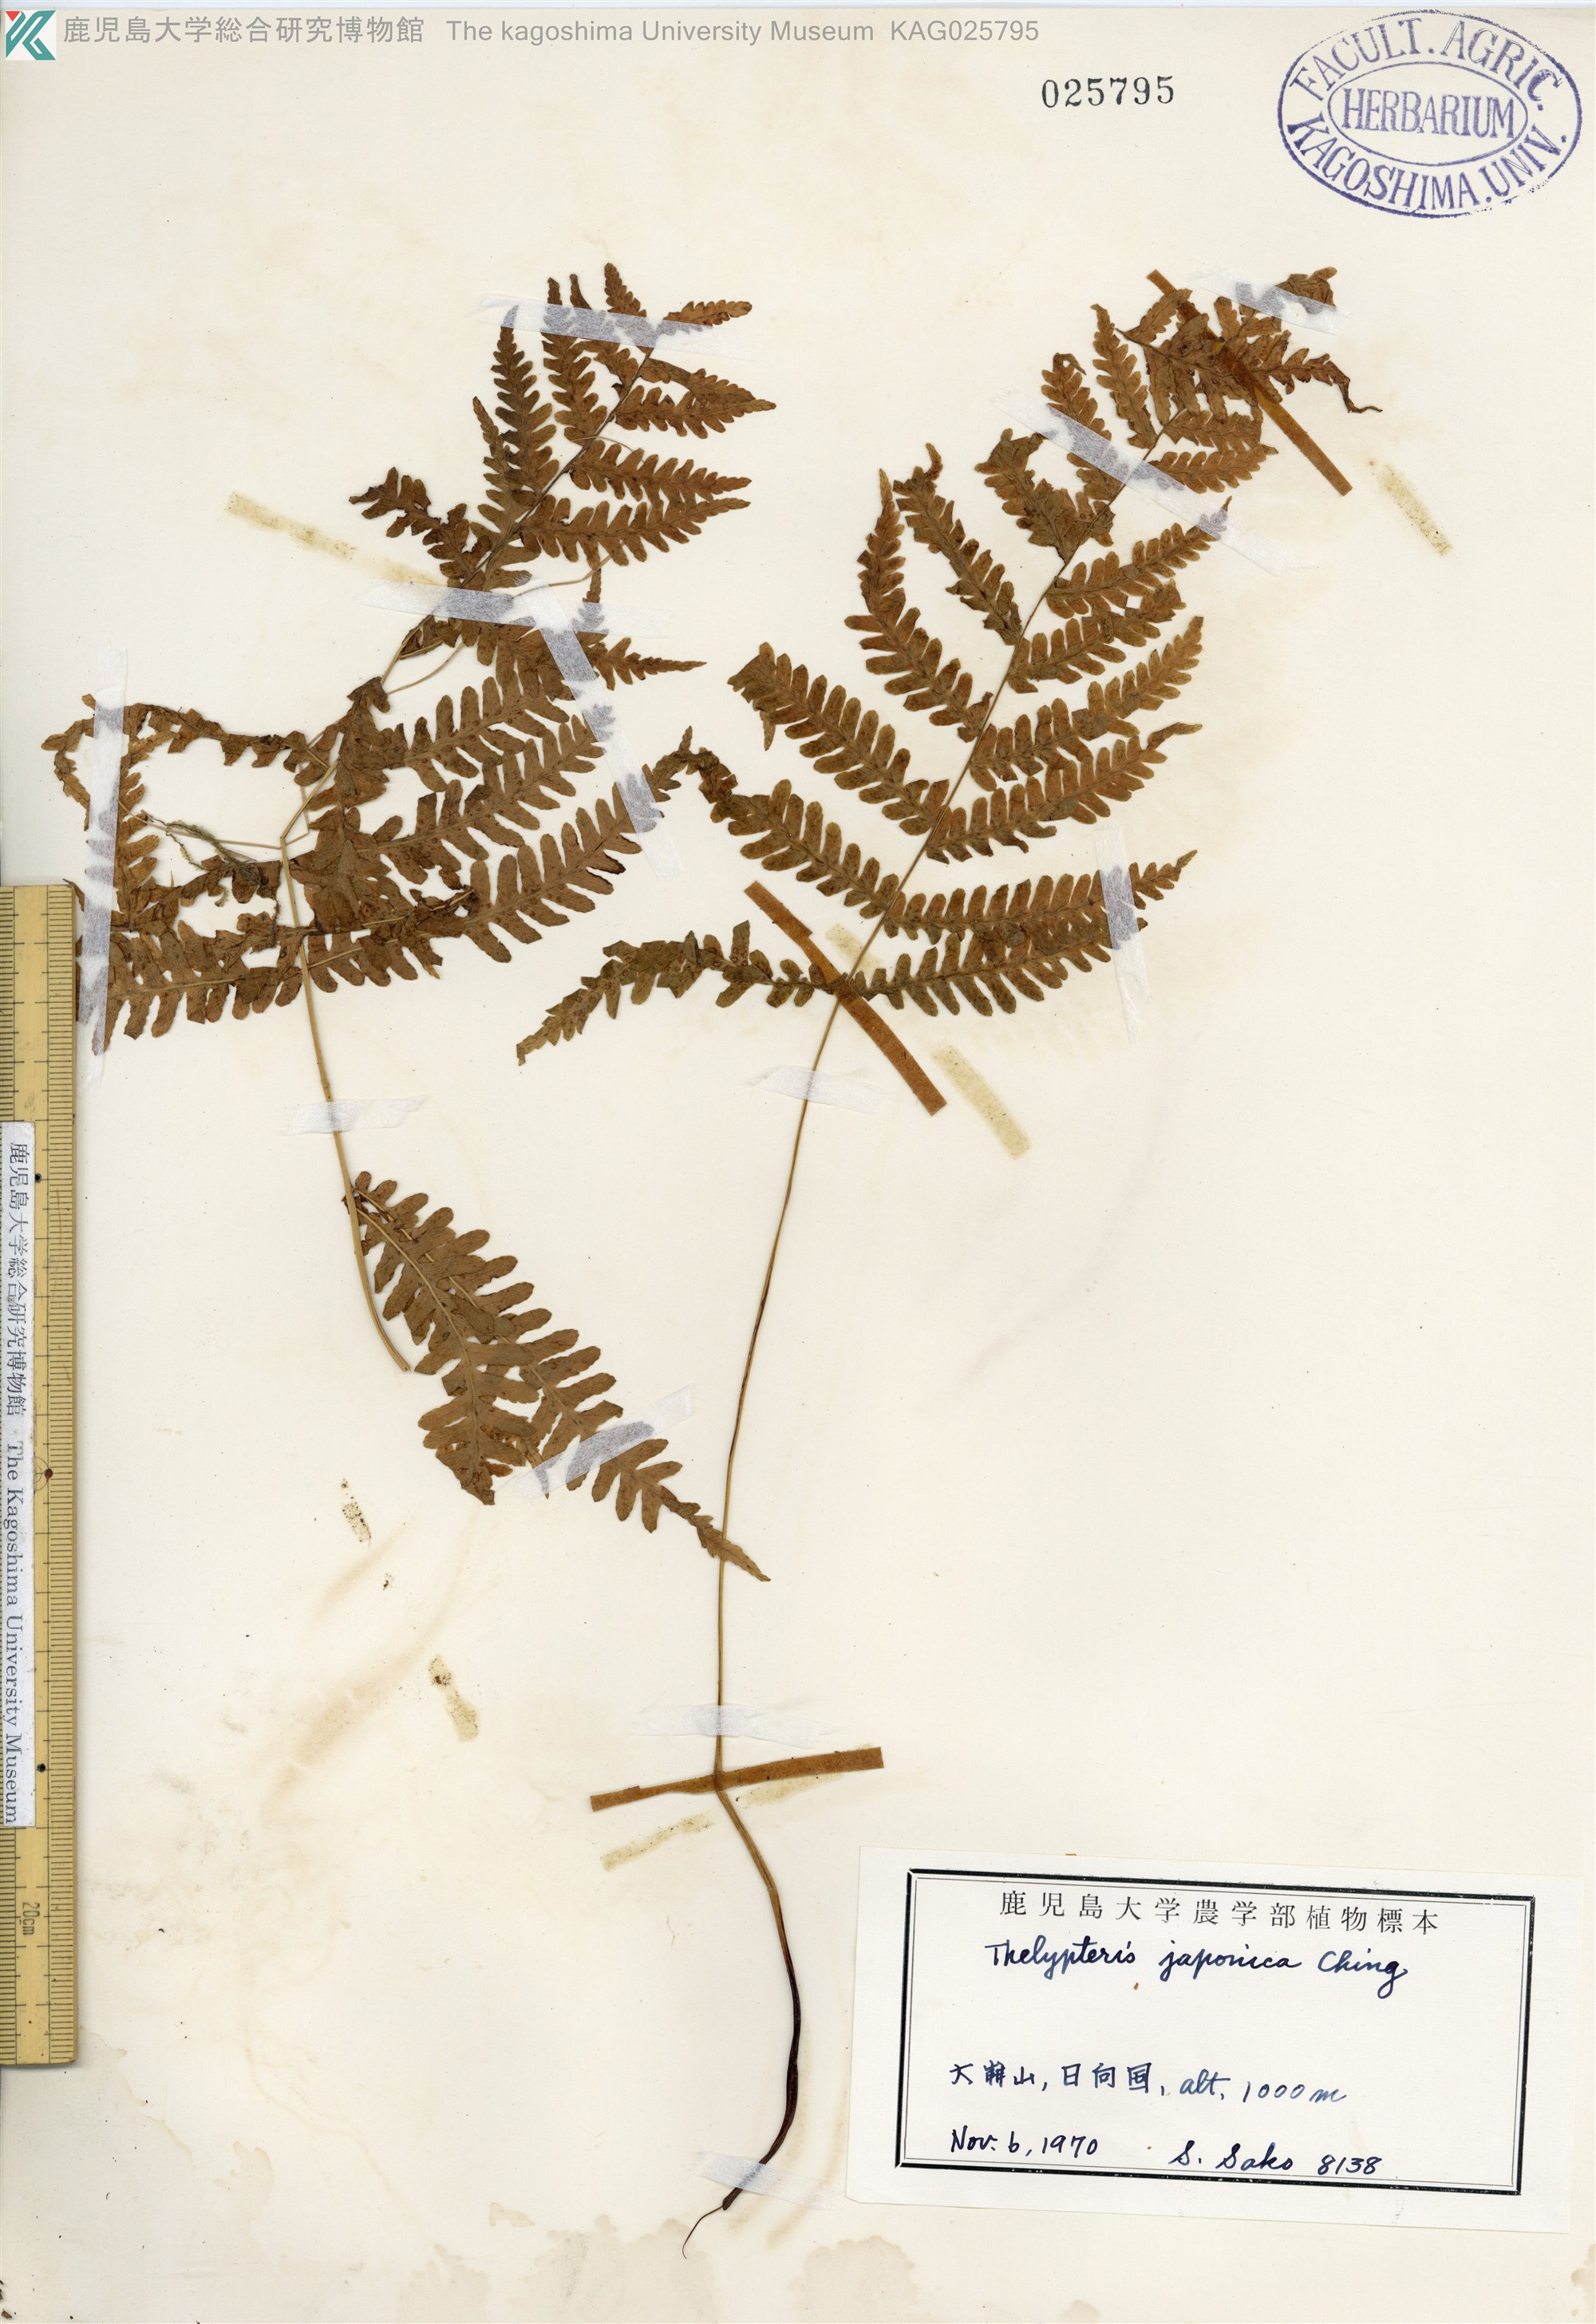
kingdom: Plantae
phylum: Tracheophyta
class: Polypodiopsida
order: Polypodiales
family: Thelypteridaceae
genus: Coryphopteris
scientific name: Coryphopteris japonica
